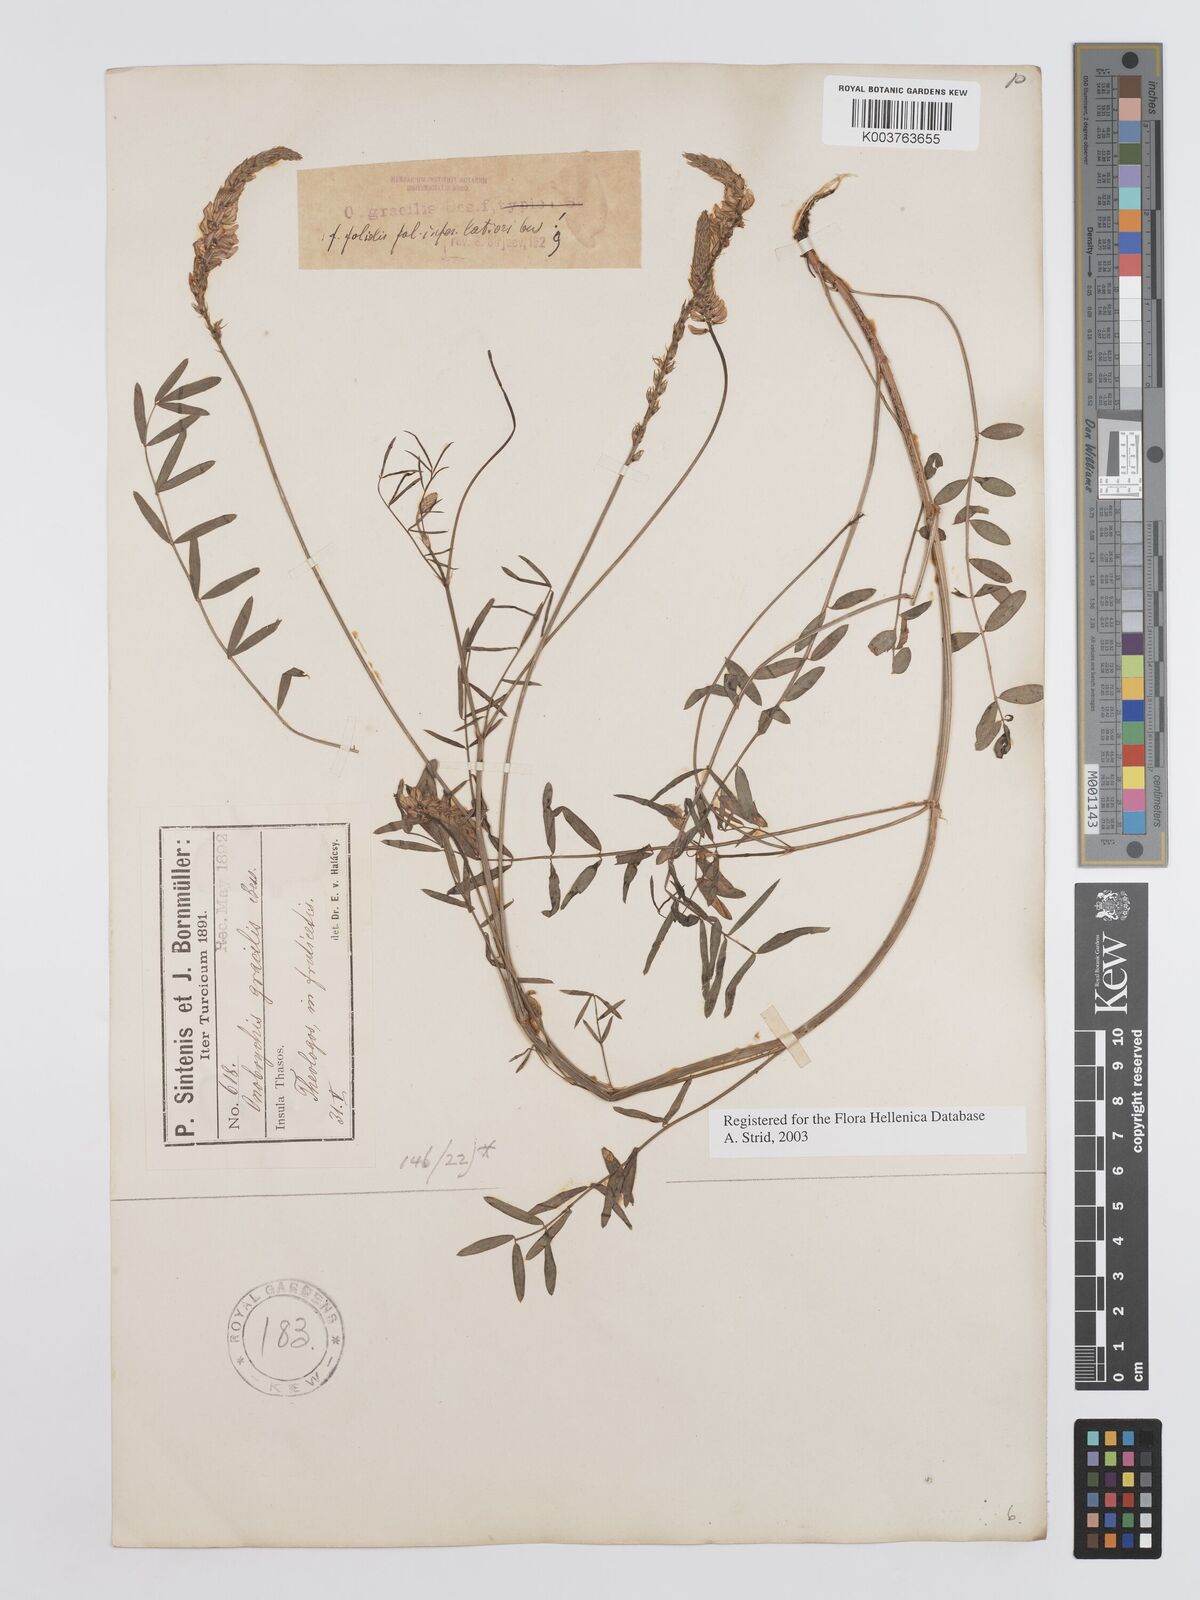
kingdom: Plantae
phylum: Tracheophyta
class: Magnoliopsida
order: Fabales
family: Fabaceae
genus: Onobrychis
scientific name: Onobrychis gracilis
